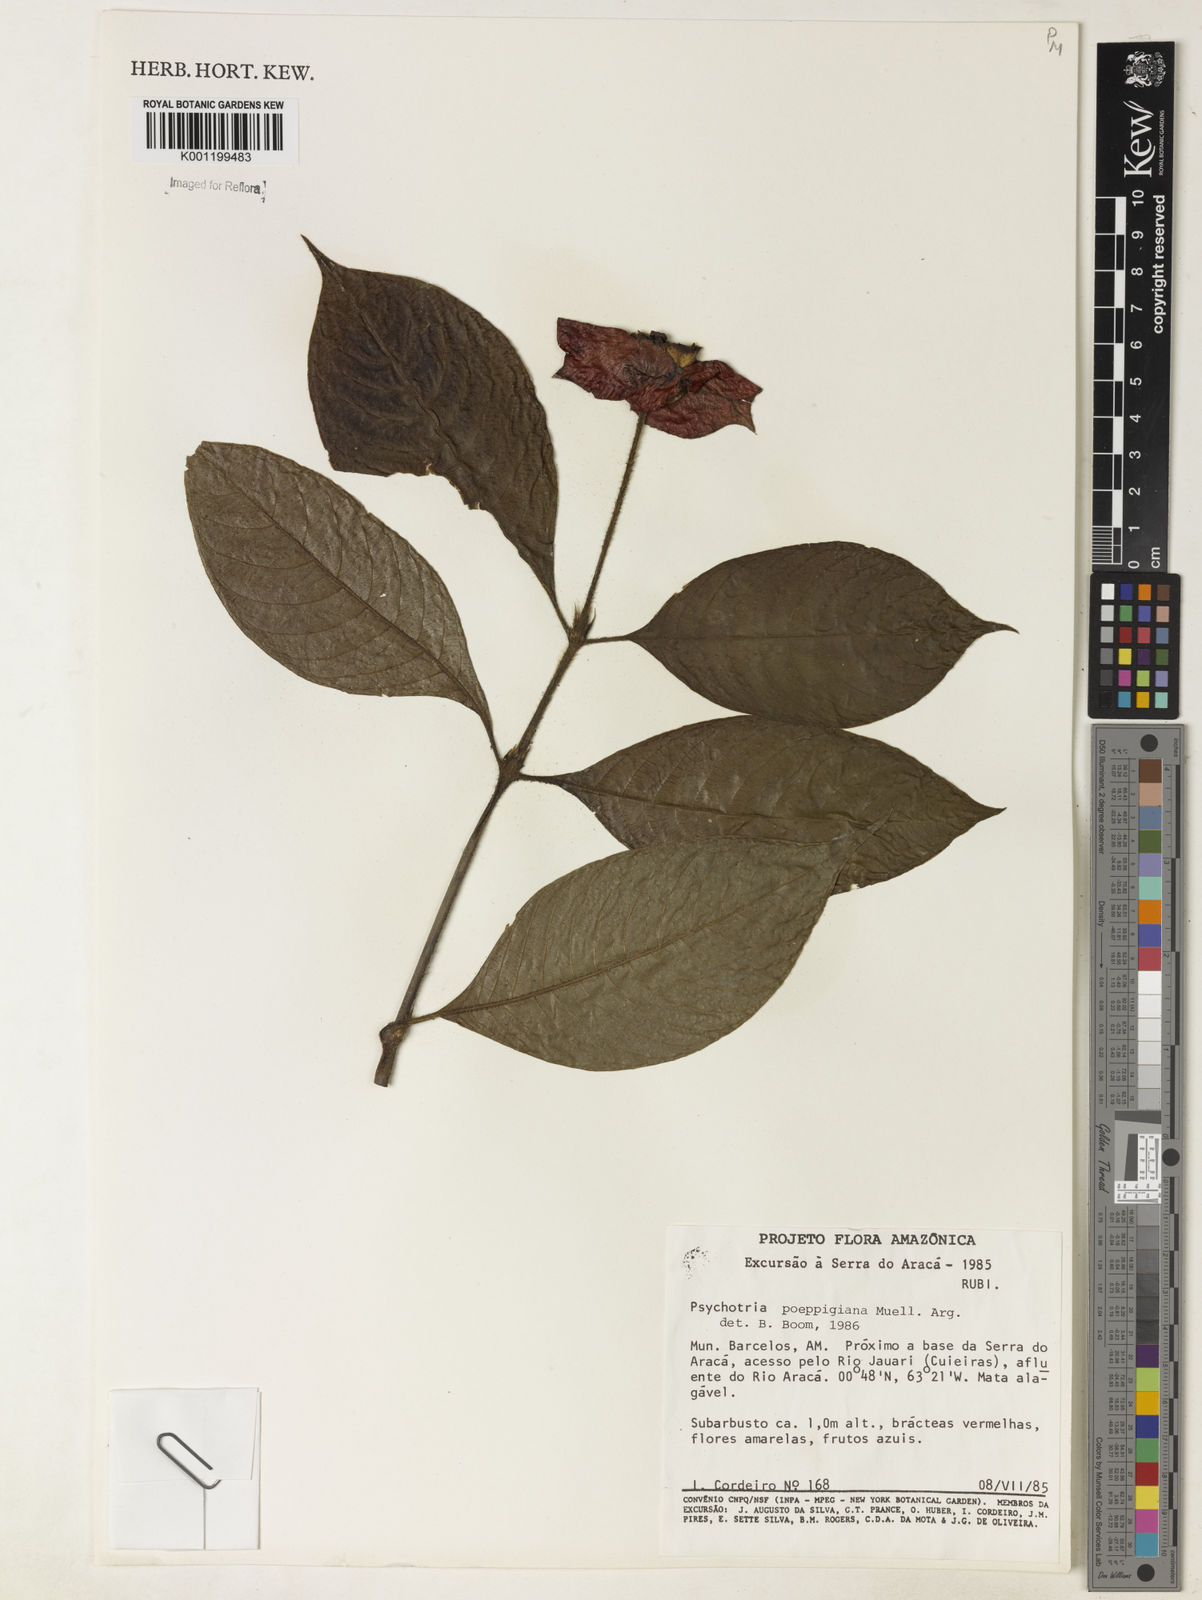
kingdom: Plantae
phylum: Tracheophyta
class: Magnoliopsida
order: Gentianales
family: Rubiaceae
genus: Psychotria
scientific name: Psychotria
